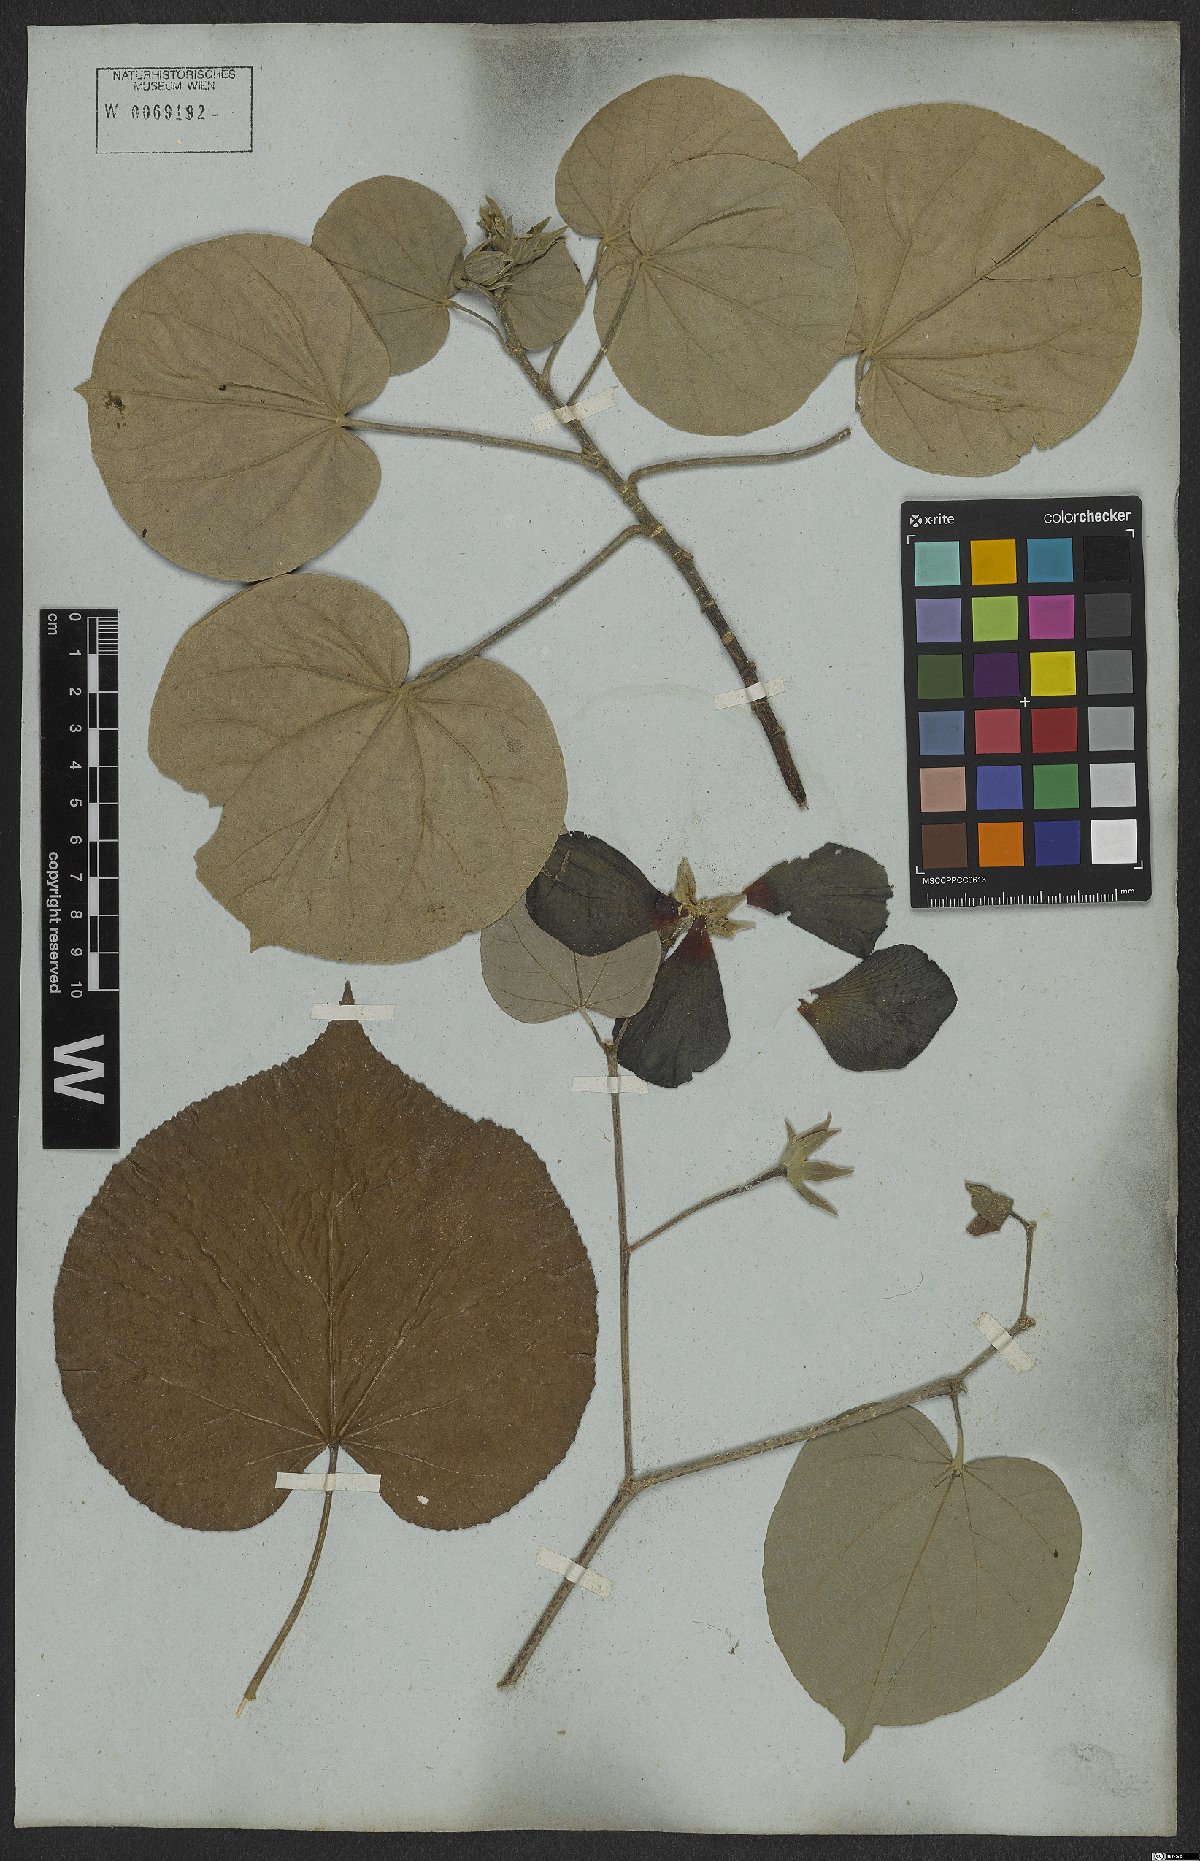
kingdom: Plantae
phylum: Tracheophyta
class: Magnoliopsida
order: Malvales
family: Malvaceae
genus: Talipariti
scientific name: Talipariti tiliaceum
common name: Sea hibiscus
